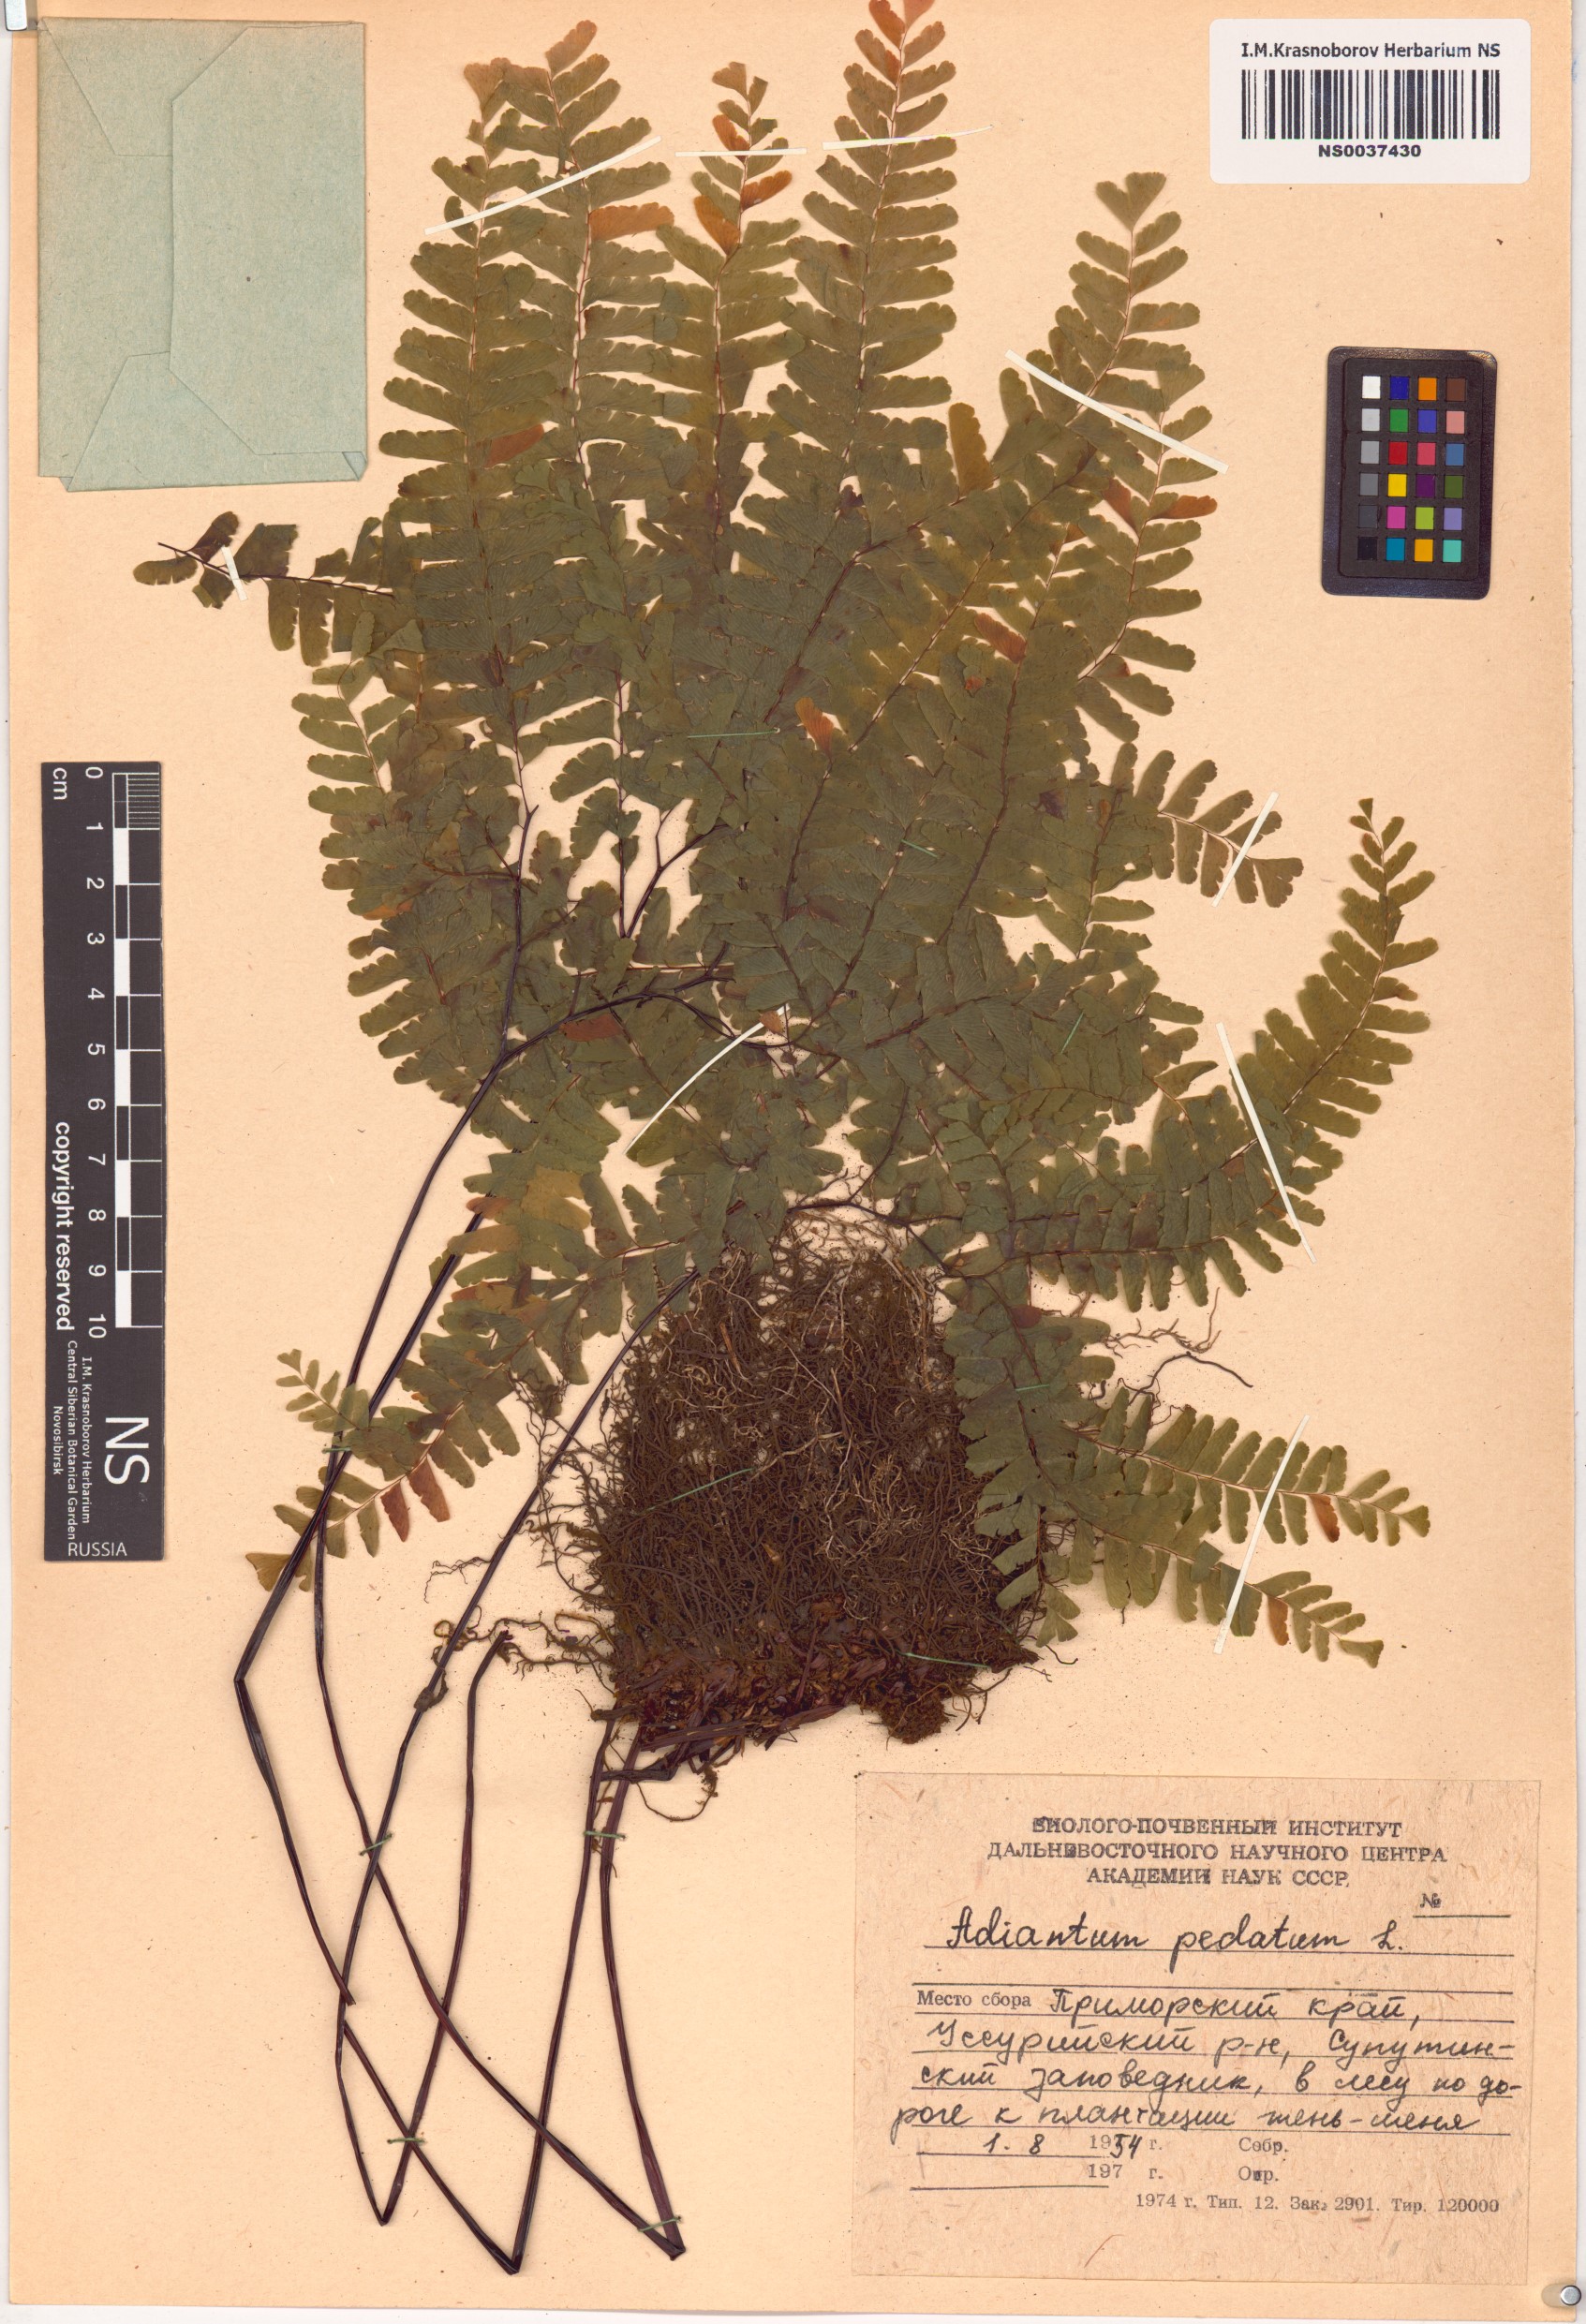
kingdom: Plantae
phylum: Tracheophyta
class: Polypodiopsida
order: Polypodiales
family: Pteridaceae
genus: Adiantum
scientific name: Adiantum pedatum
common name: Five-finger fern
